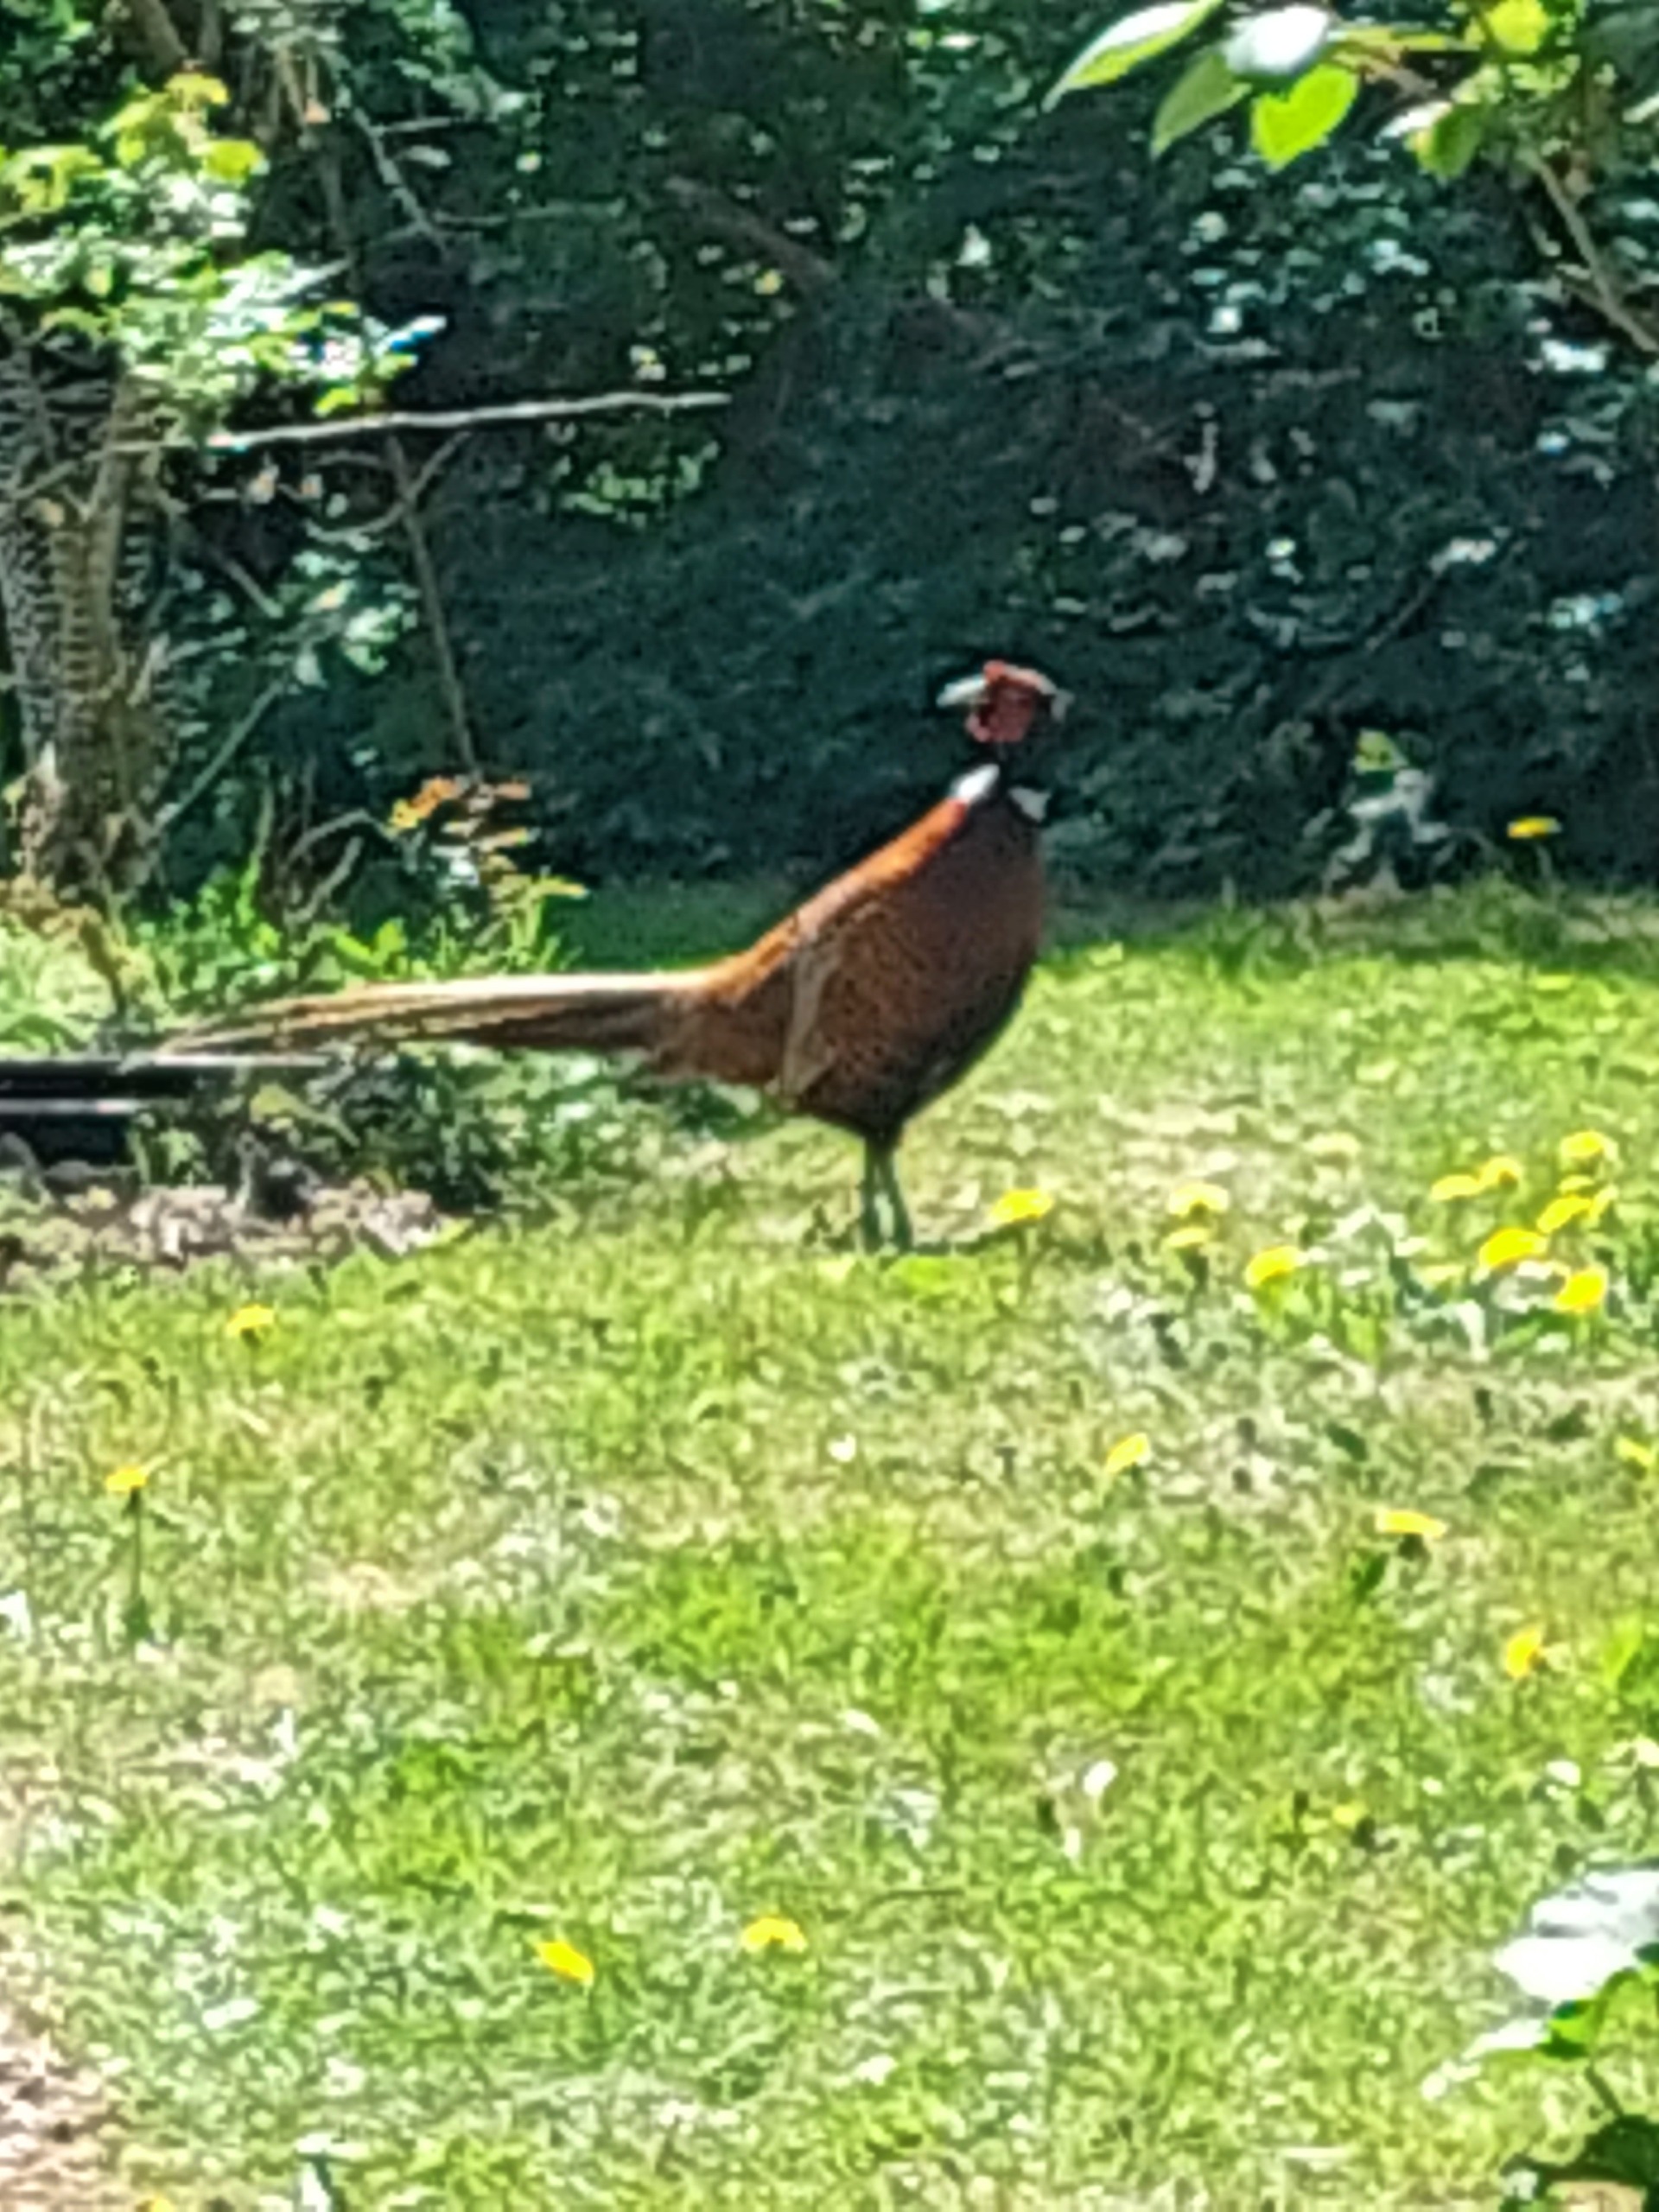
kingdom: Animalia
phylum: Chordata
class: Aves
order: Galliformes
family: Phasianidae
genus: Phasianus
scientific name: Phasianus colchicus
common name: Fasan
